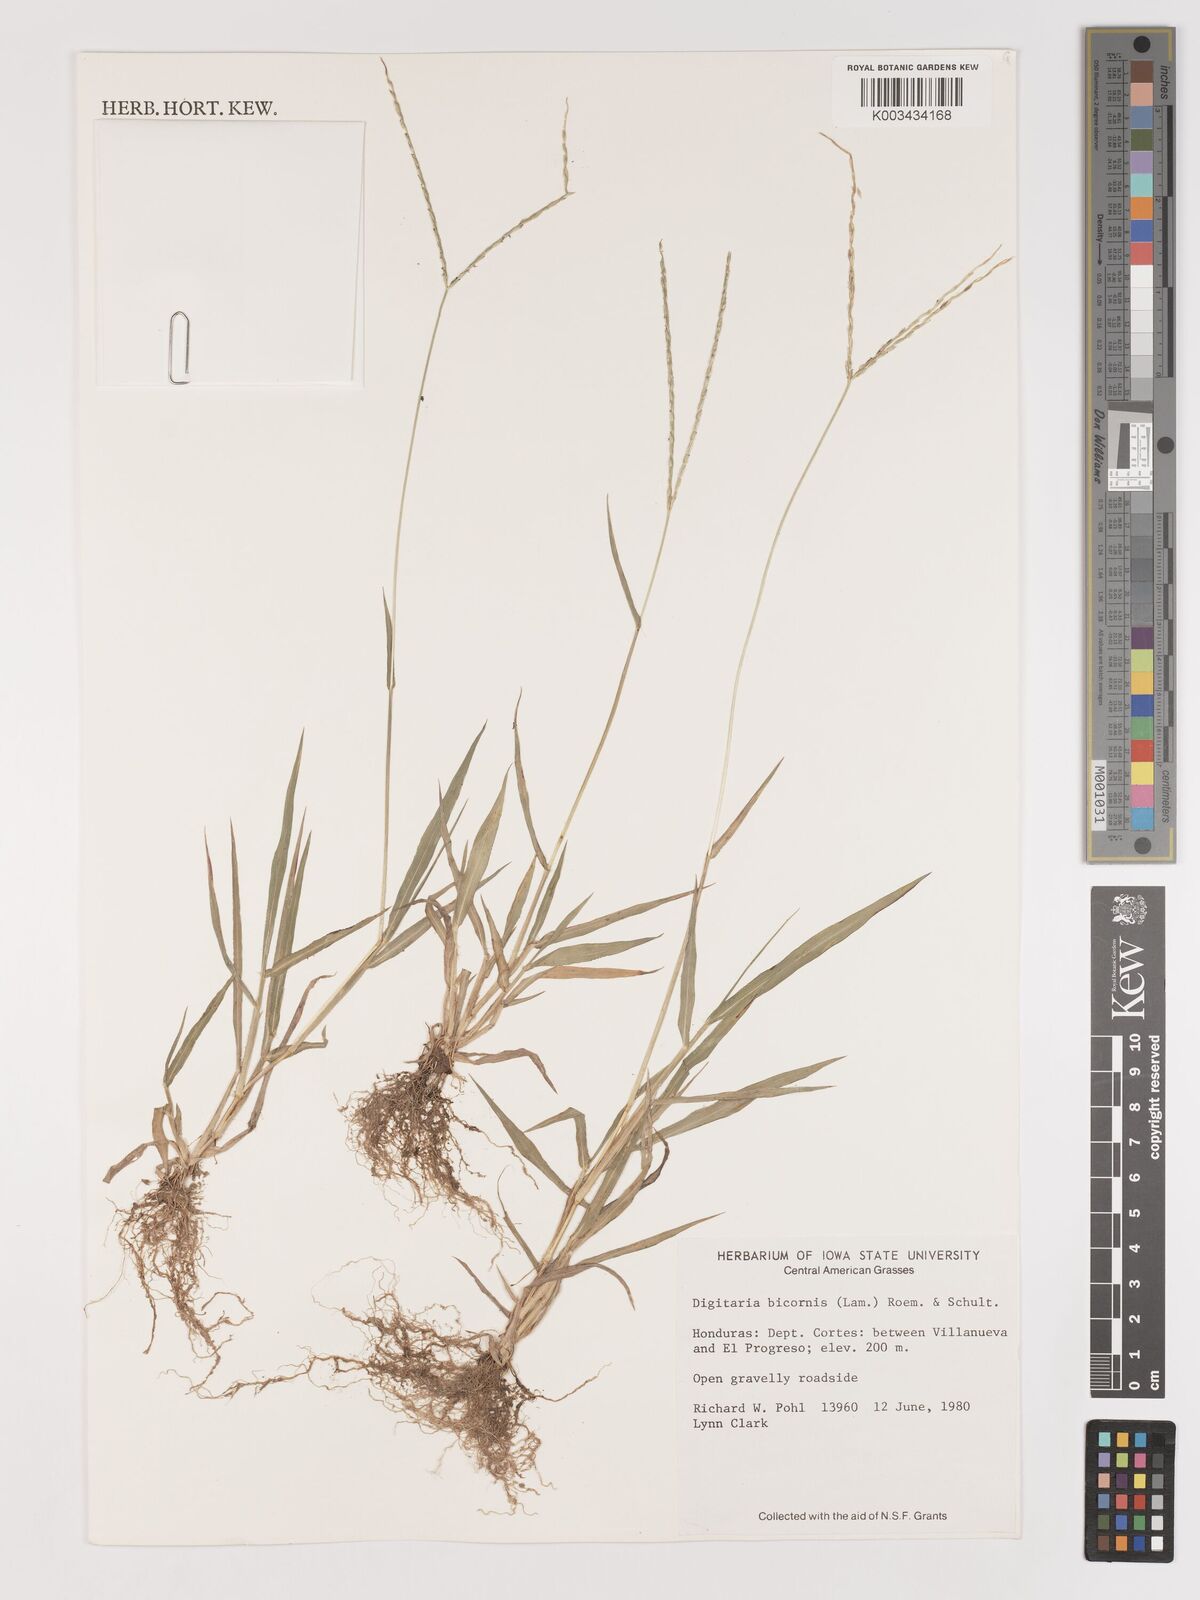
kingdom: Plantae
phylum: Tracheophyta
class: Liliopsida
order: Poales
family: Poaceae
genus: Digitaria
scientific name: Digitaria ciliaris
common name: Tropical finger-grass
